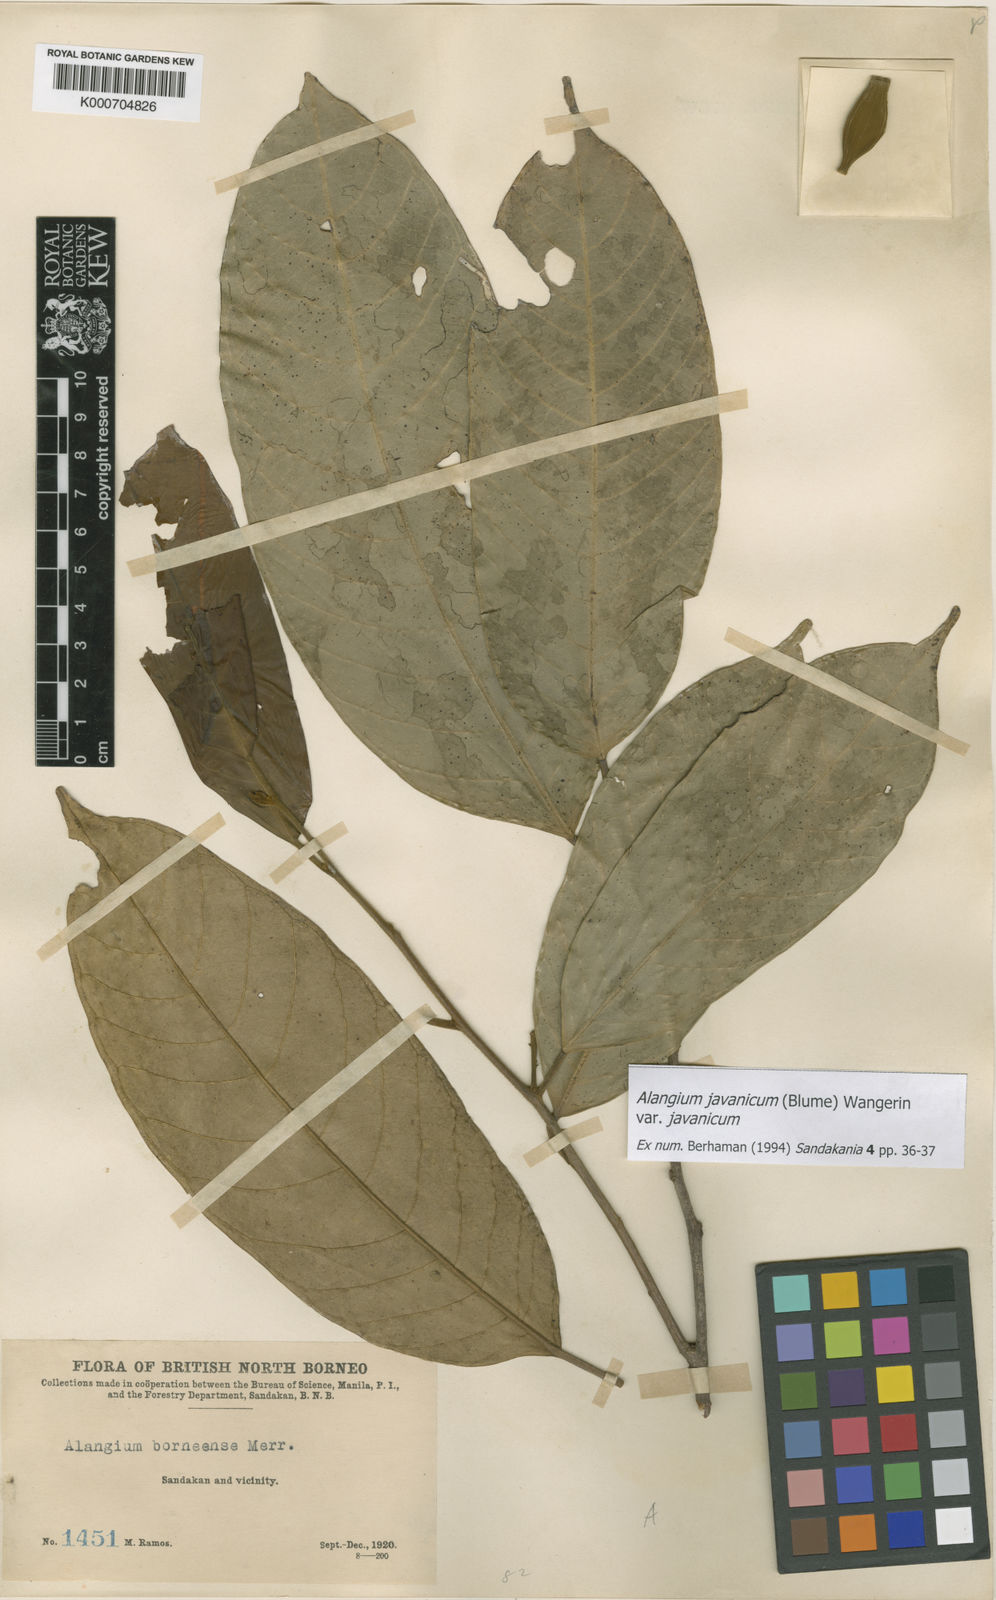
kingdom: Plantae
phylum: Tracheophyta
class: Magnoliopsida
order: Cornales
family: Cornaceae
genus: Alangium
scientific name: Alangium borneense
